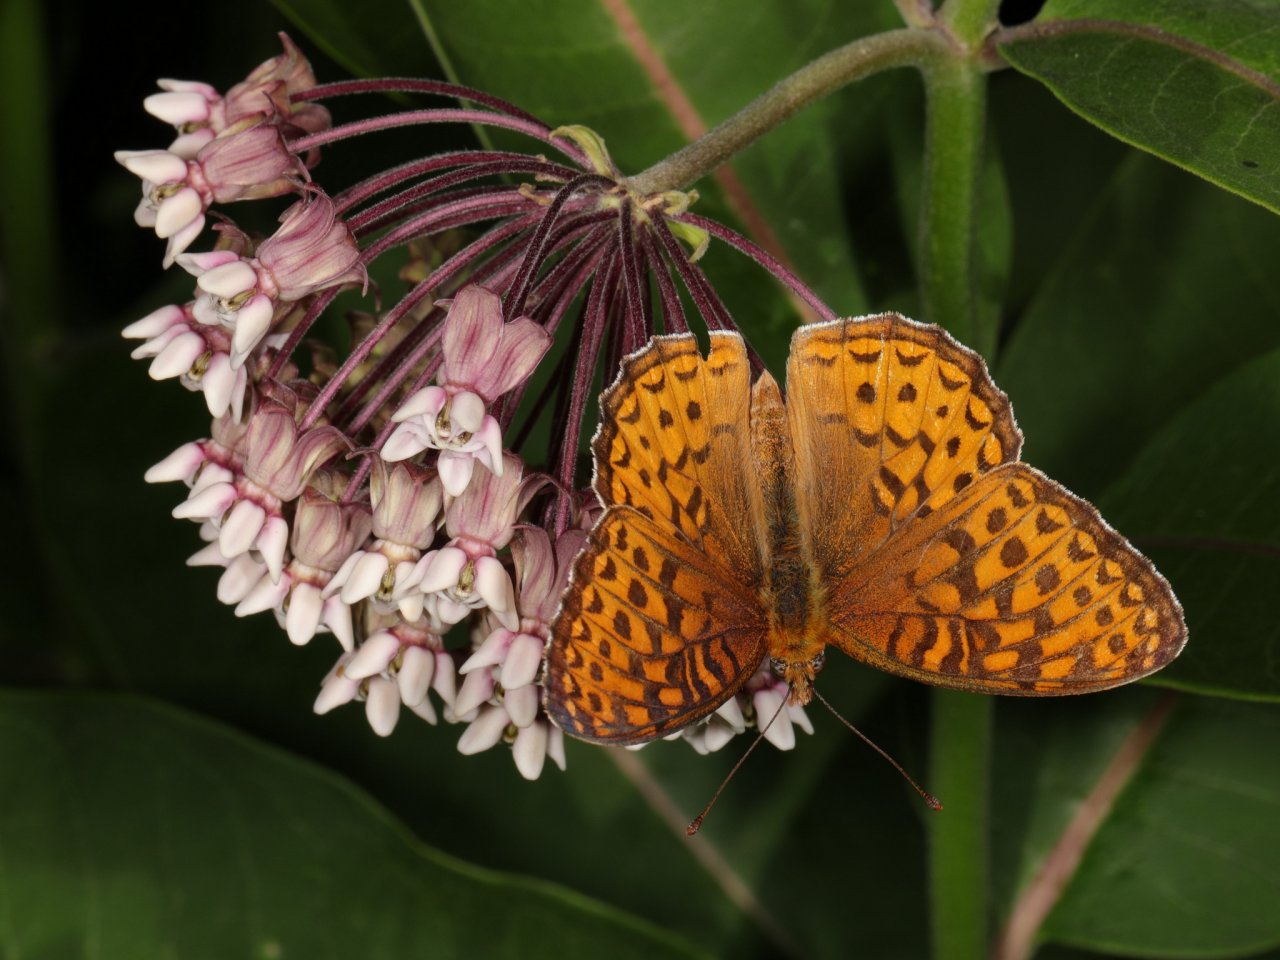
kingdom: Animalia
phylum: Arthropoda
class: Insecta
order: Lepidoptera
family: Nymphalidae
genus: Speyeria
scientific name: Speyeria atlantis
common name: Atlantis Fritillary
